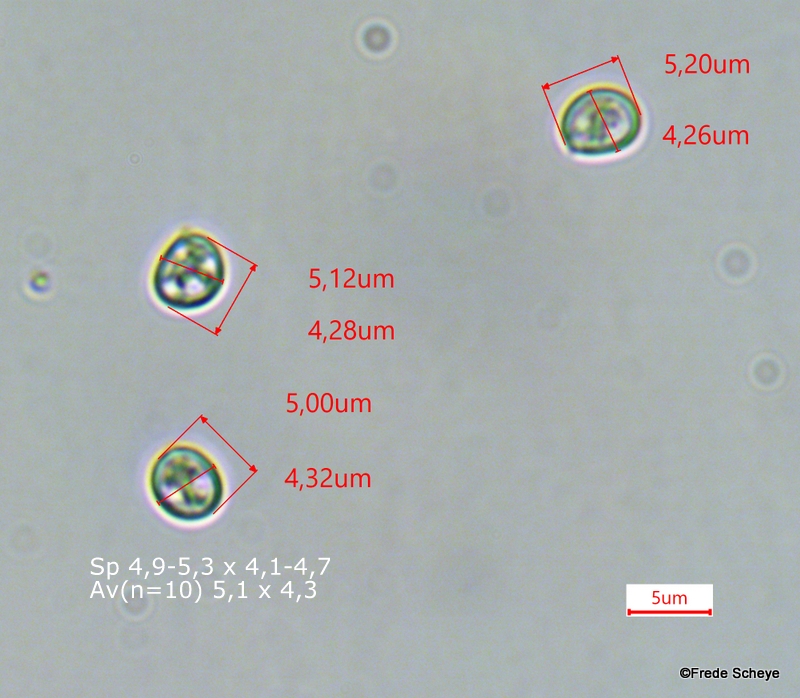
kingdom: Fungi
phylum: Basidiomycota
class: Agaricomycetes
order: Hymenochaetales
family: Hymenochaetaceae
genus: Phellinopsis
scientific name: Phellinopsis conchata
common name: pile-ildporesvamp
